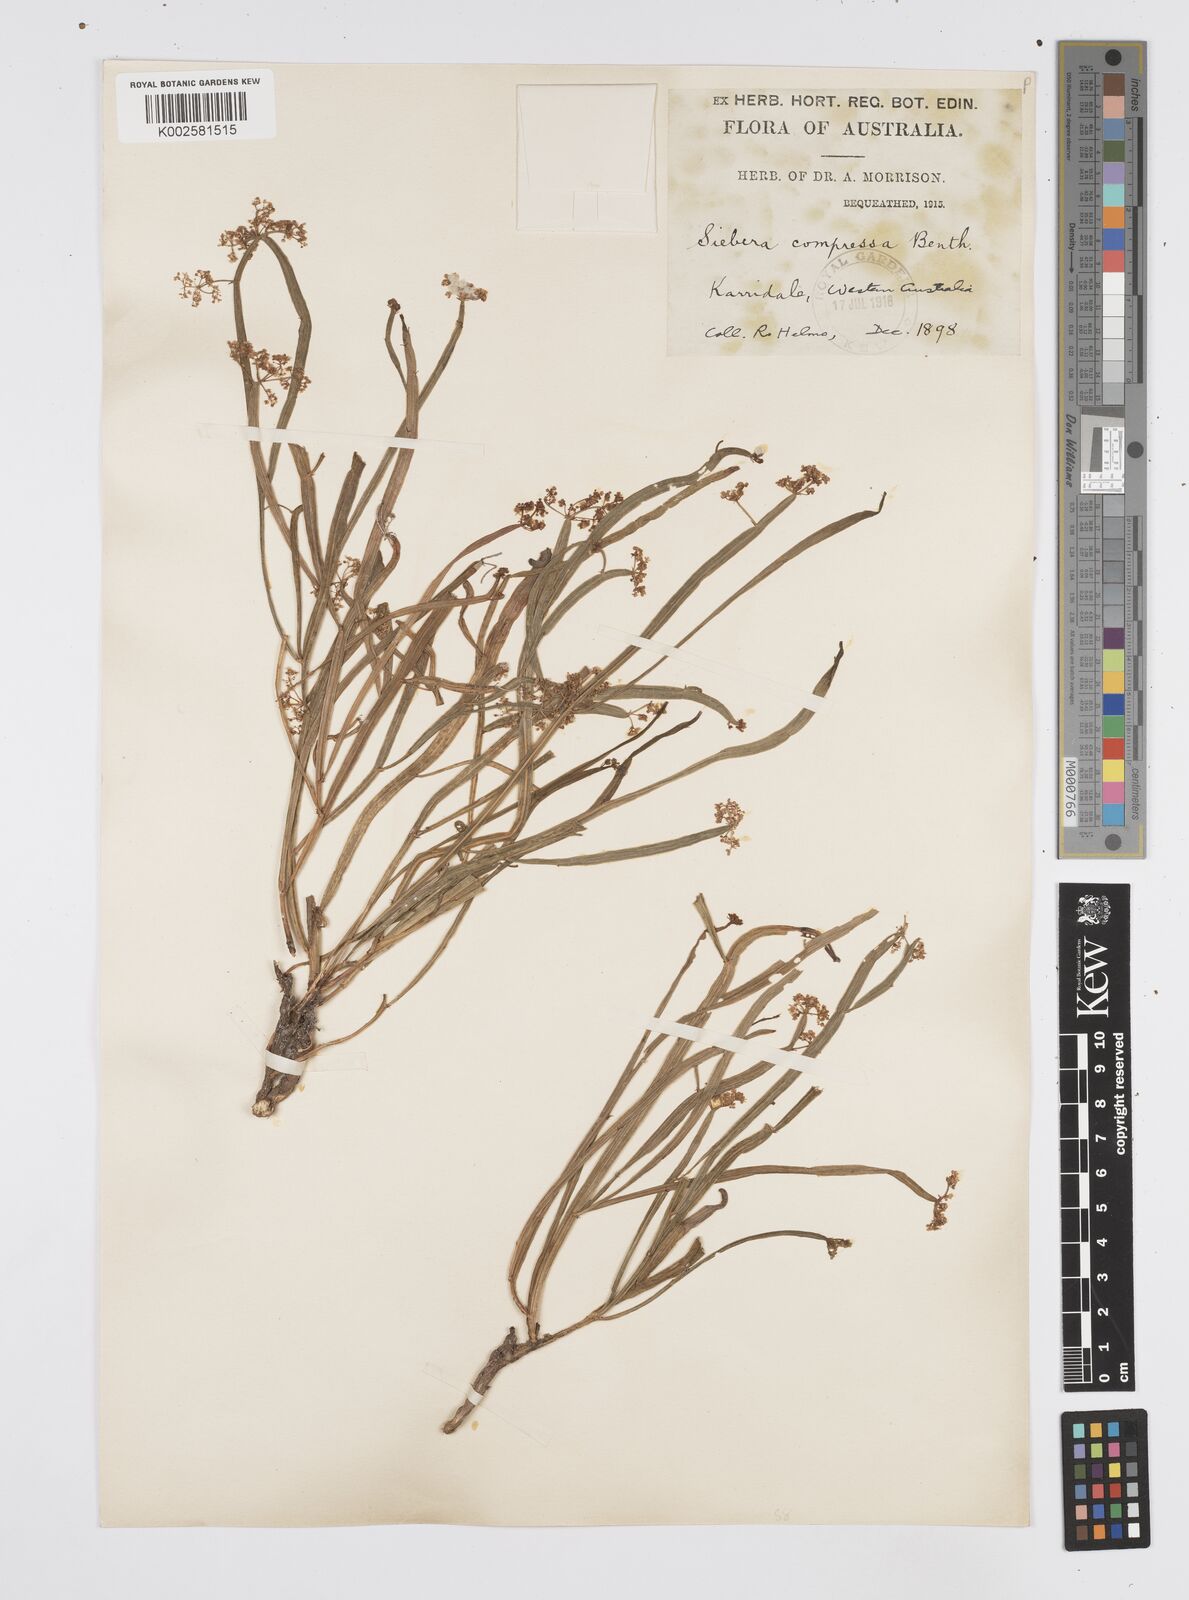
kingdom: Plantae
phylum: Tracheophyta
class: Magnoliopsida
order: Apiales
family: Apiaceae
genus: Centella
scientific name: Centella
